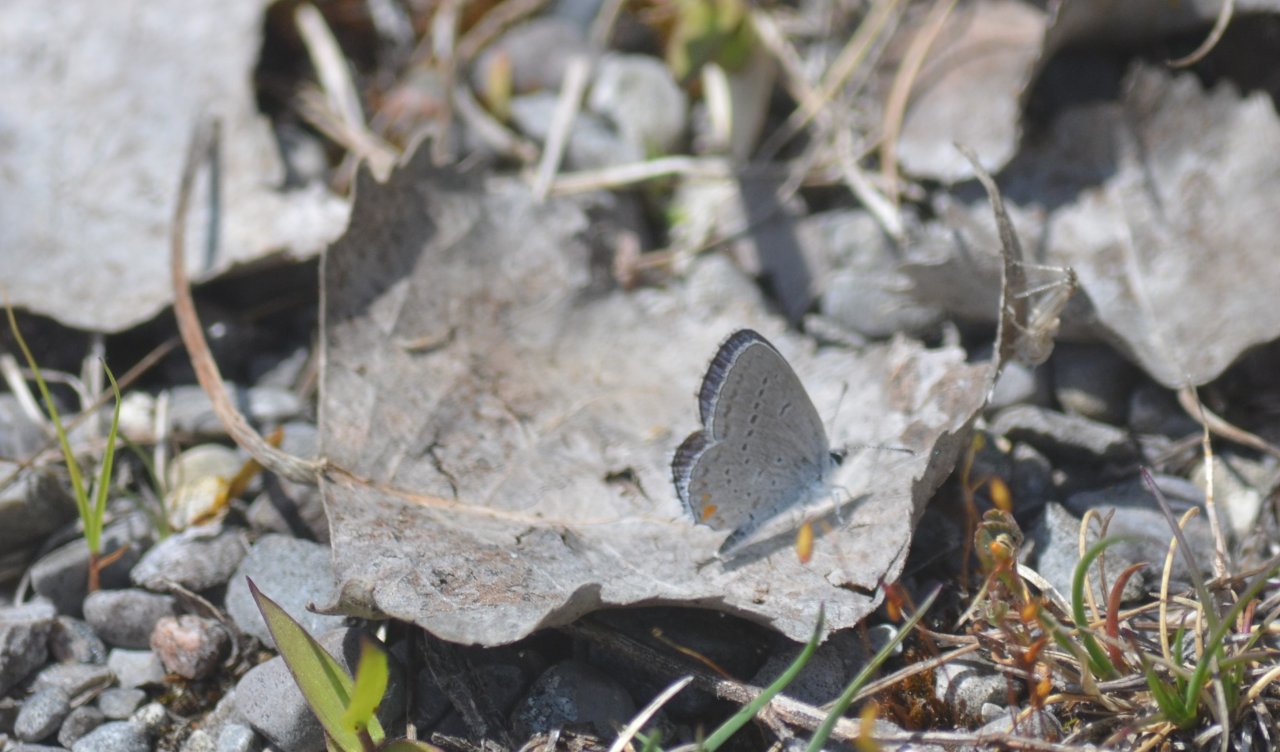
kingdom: Animalia
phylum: Arthropoda
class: Insecta
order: Lepidoptera
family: Lycaenidae
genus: Elkalyce
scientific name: Elkalyce comyntas
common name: Eastern Tailed-Blue
